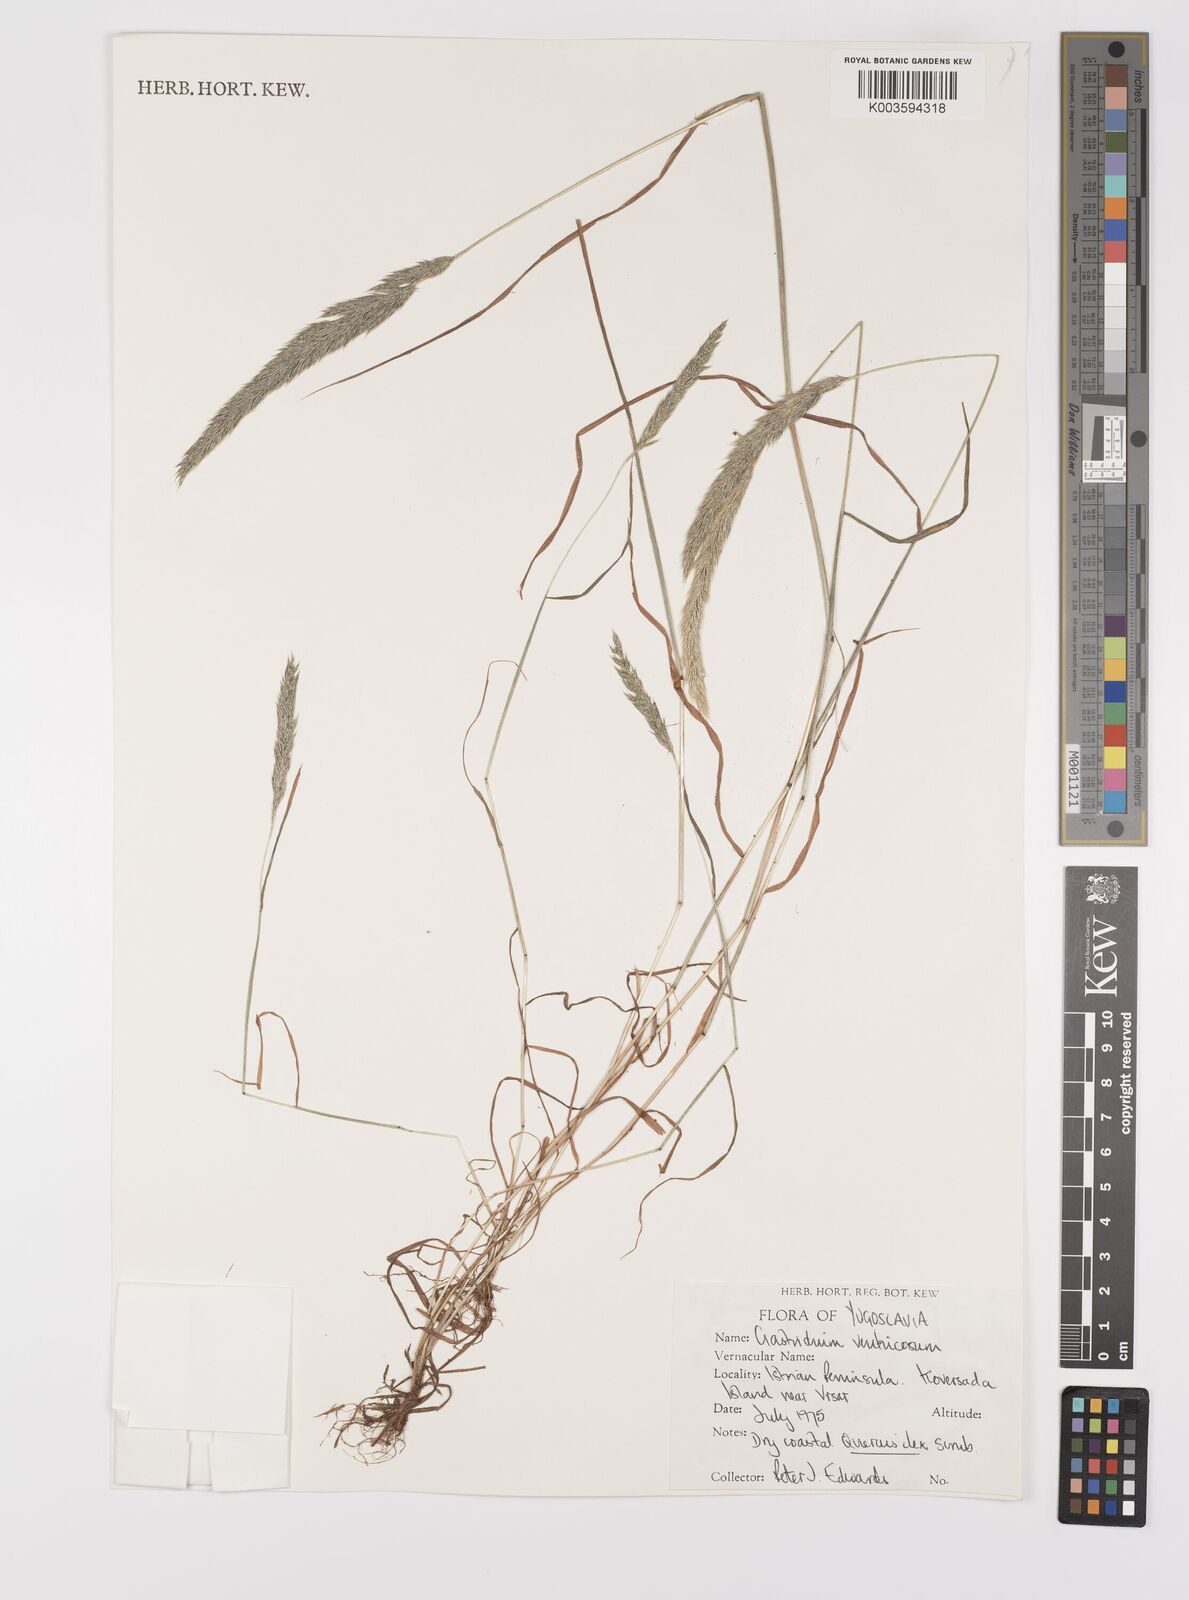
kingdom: Plantae
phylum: Tracheophyta
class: Liliopsida
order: Poales
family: Poaceae
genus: Gastridium
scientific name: Gastridium ventricosum
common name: Nit-grass
